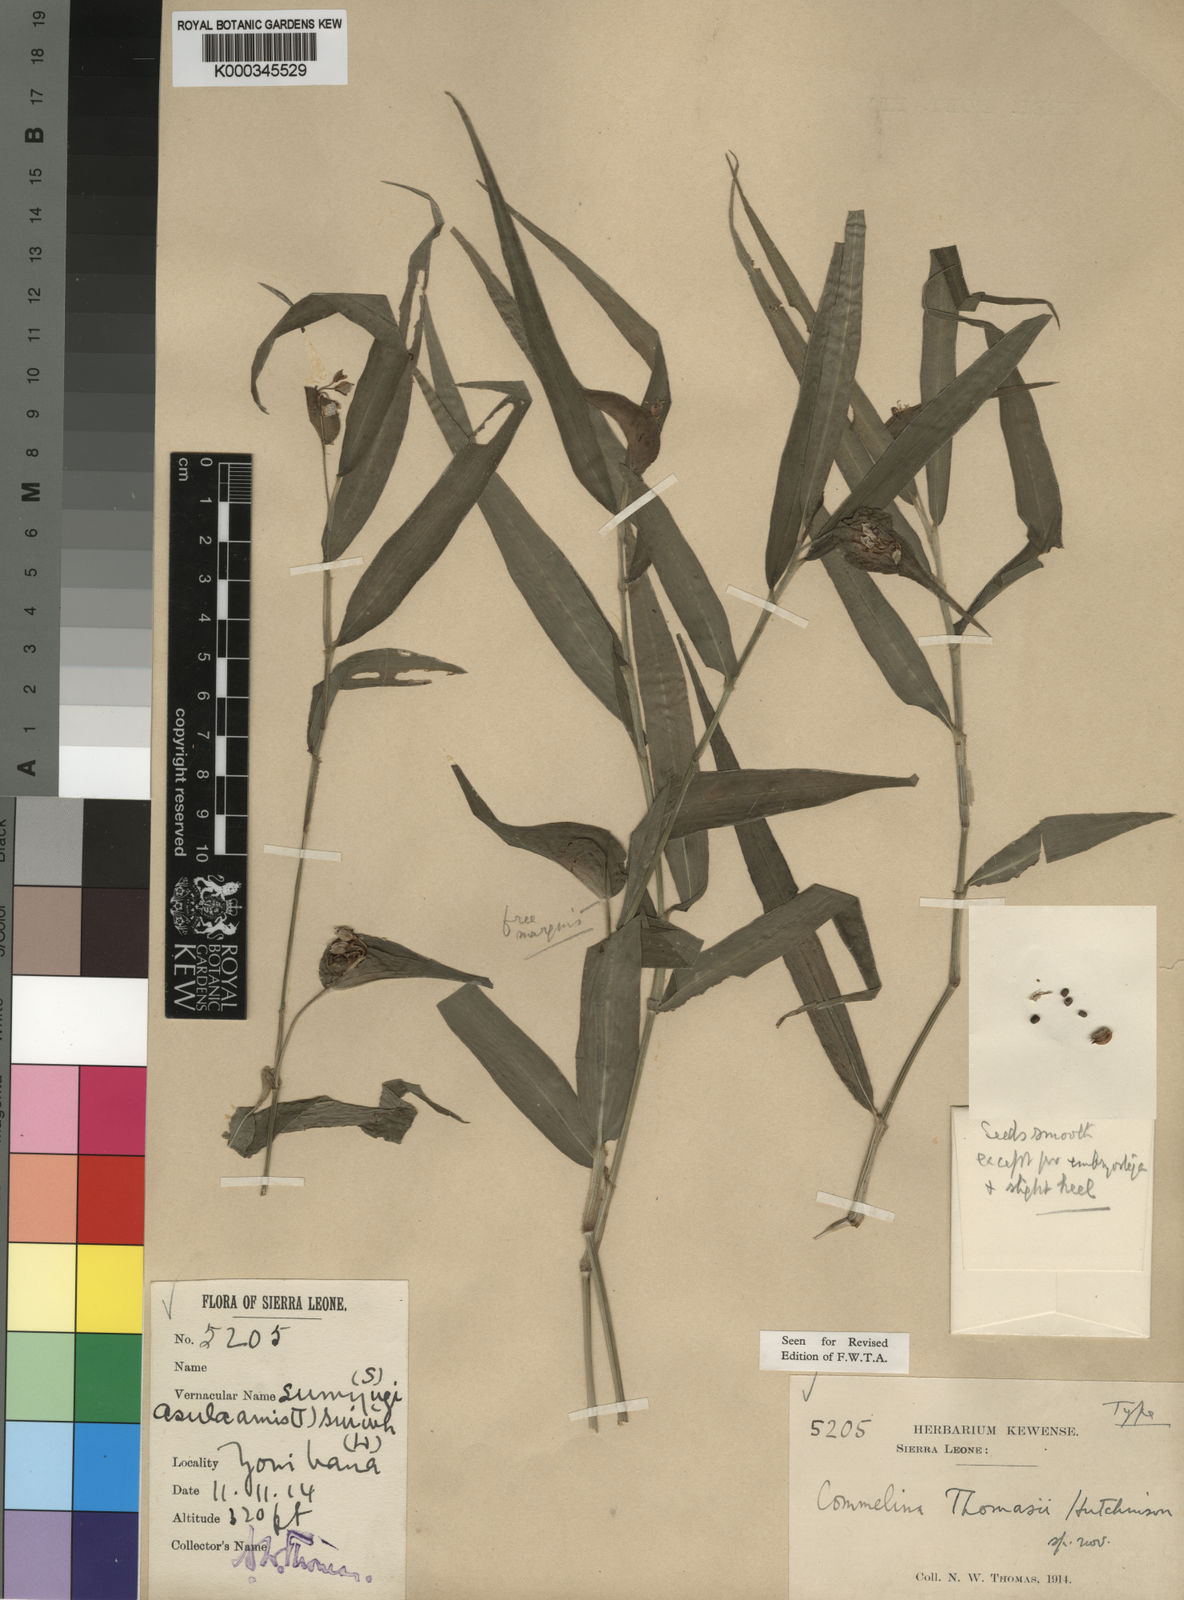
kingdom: Plantae
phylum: Tracheophyta
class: Liliopsida
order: Commelinales
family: Commelinaceae
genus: Commelina
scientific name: Commelina acutispatha
